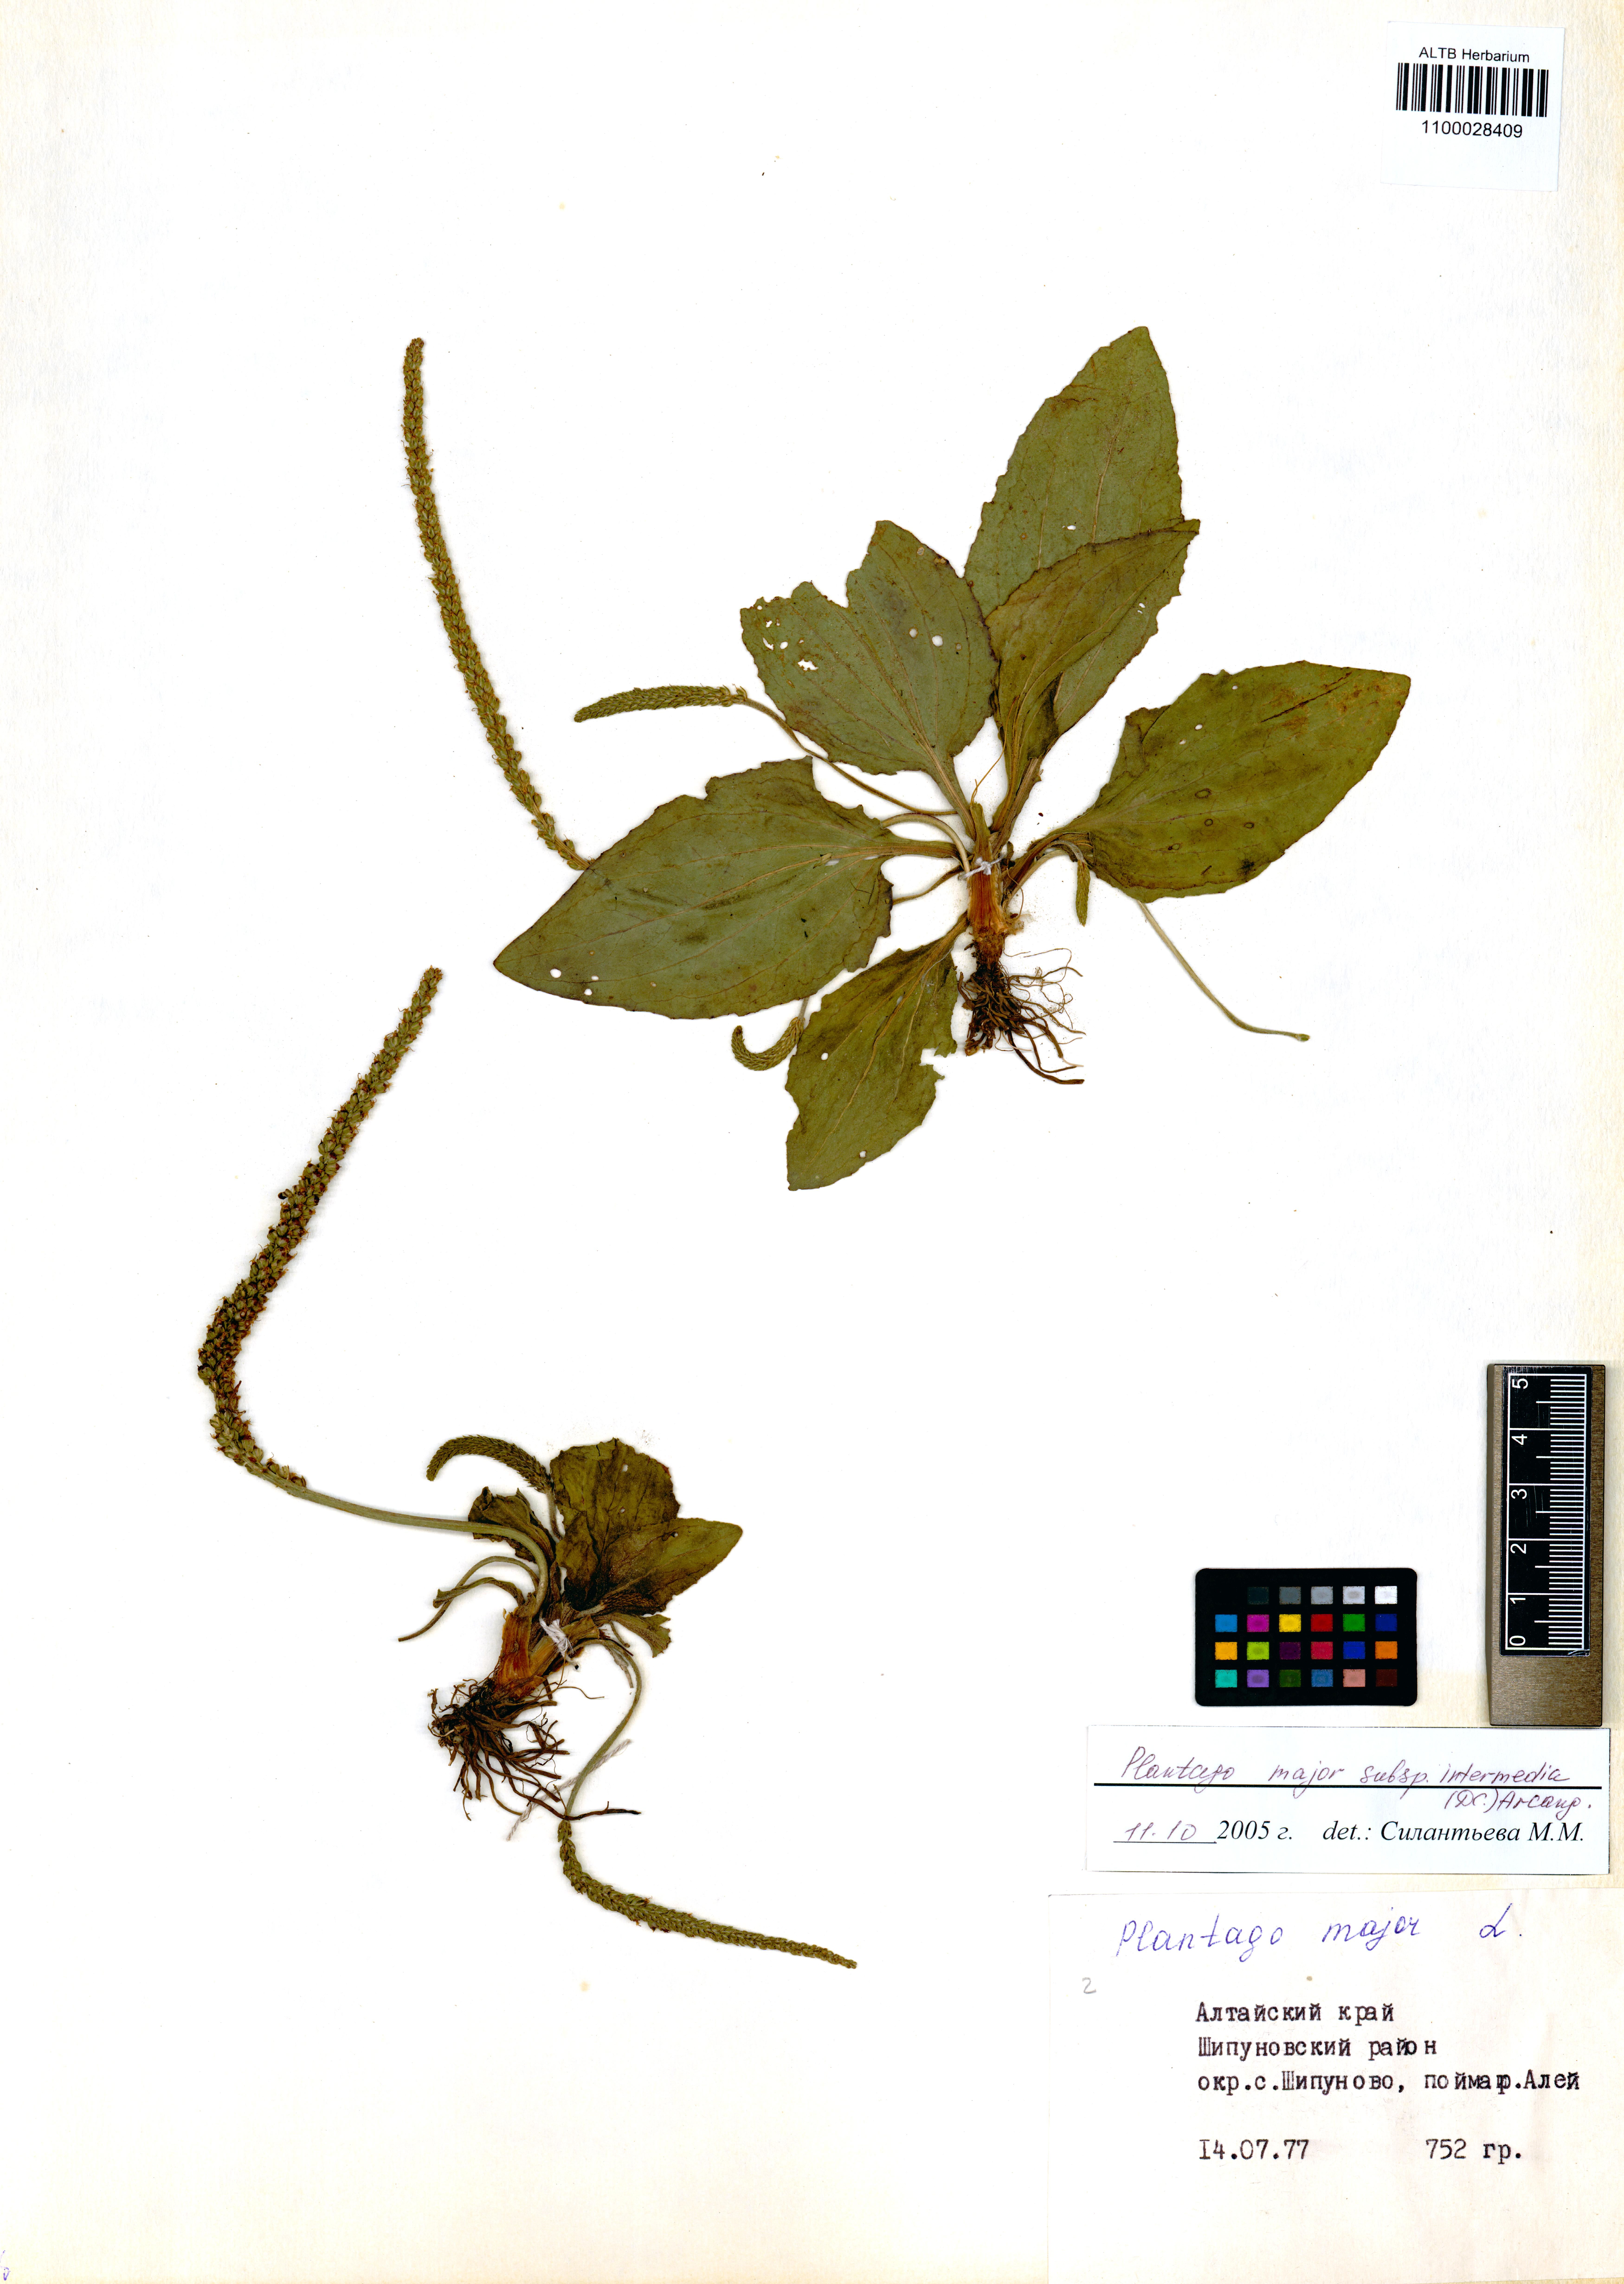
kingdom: Plantae
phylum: Tracheophyta
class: Magnoliopsida
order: Lamiales
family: Plantaginaceae
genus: Plantago
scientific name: Plantago uliginosa
